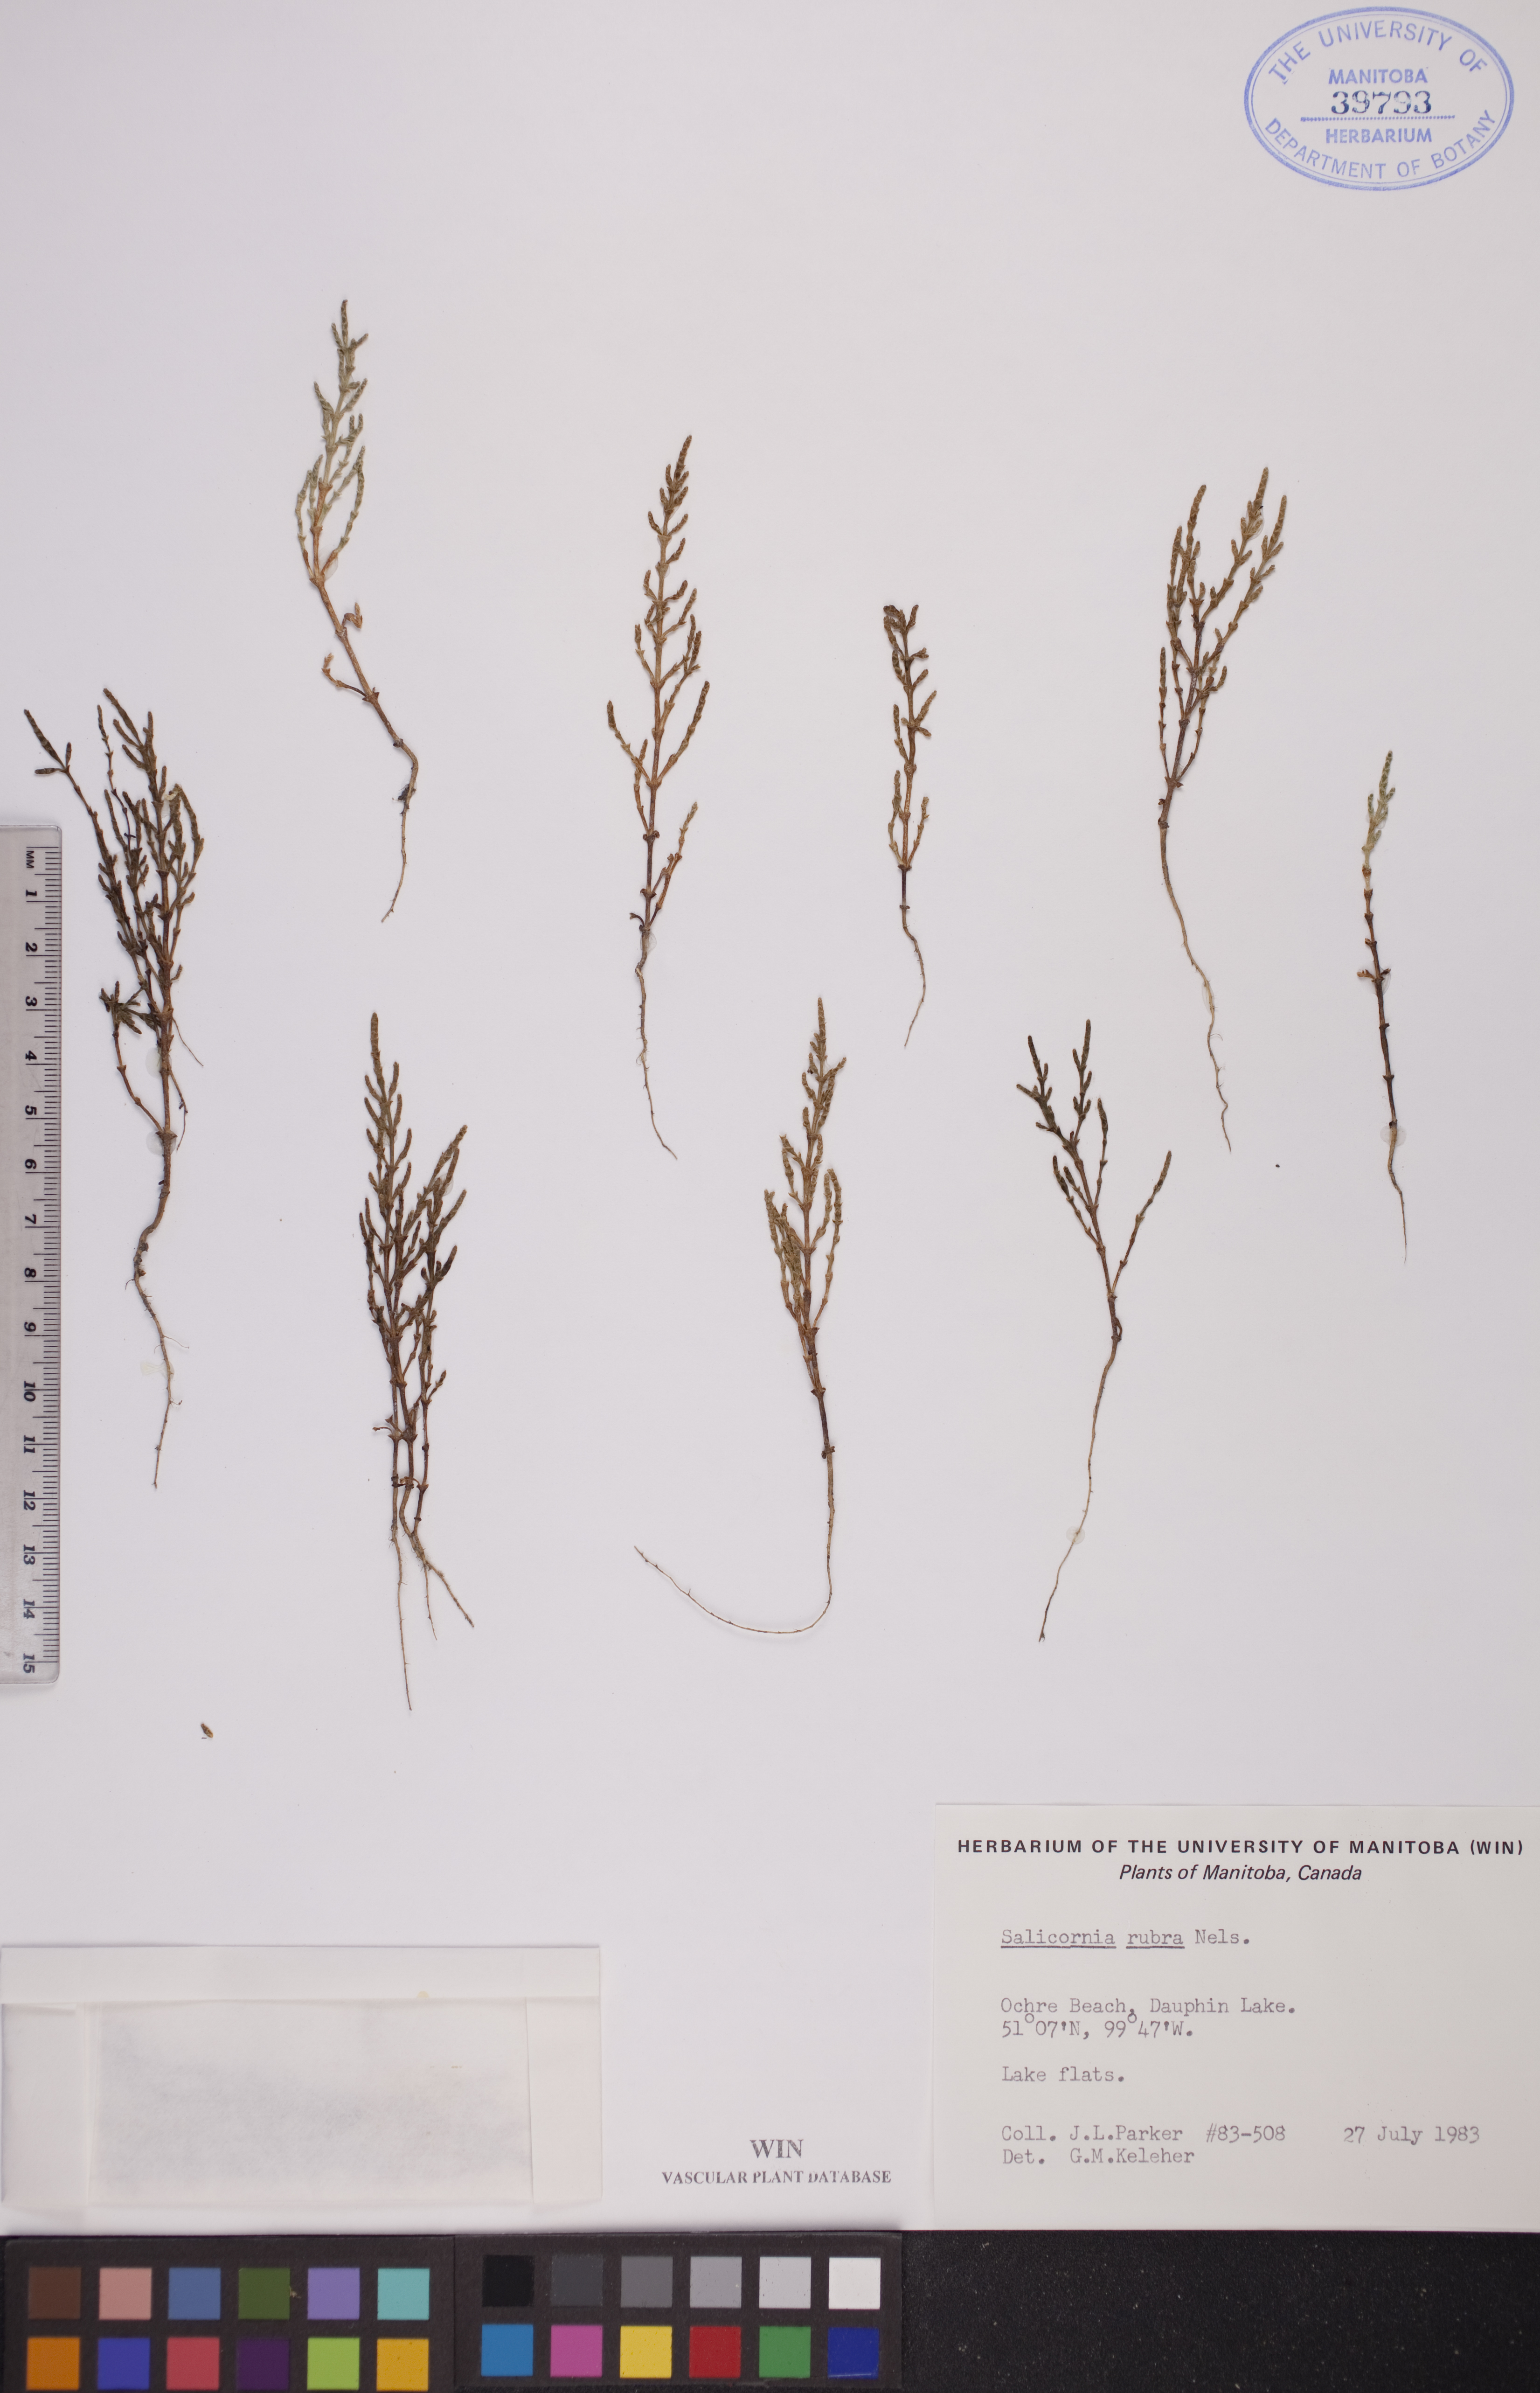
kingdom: Plantae
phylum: Tracheophyta
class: Magnoliopsida
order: Caryophyllales
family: Amaranthaceae
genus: Salicornia
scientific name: Salicornia rubra
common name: Red glasswort
